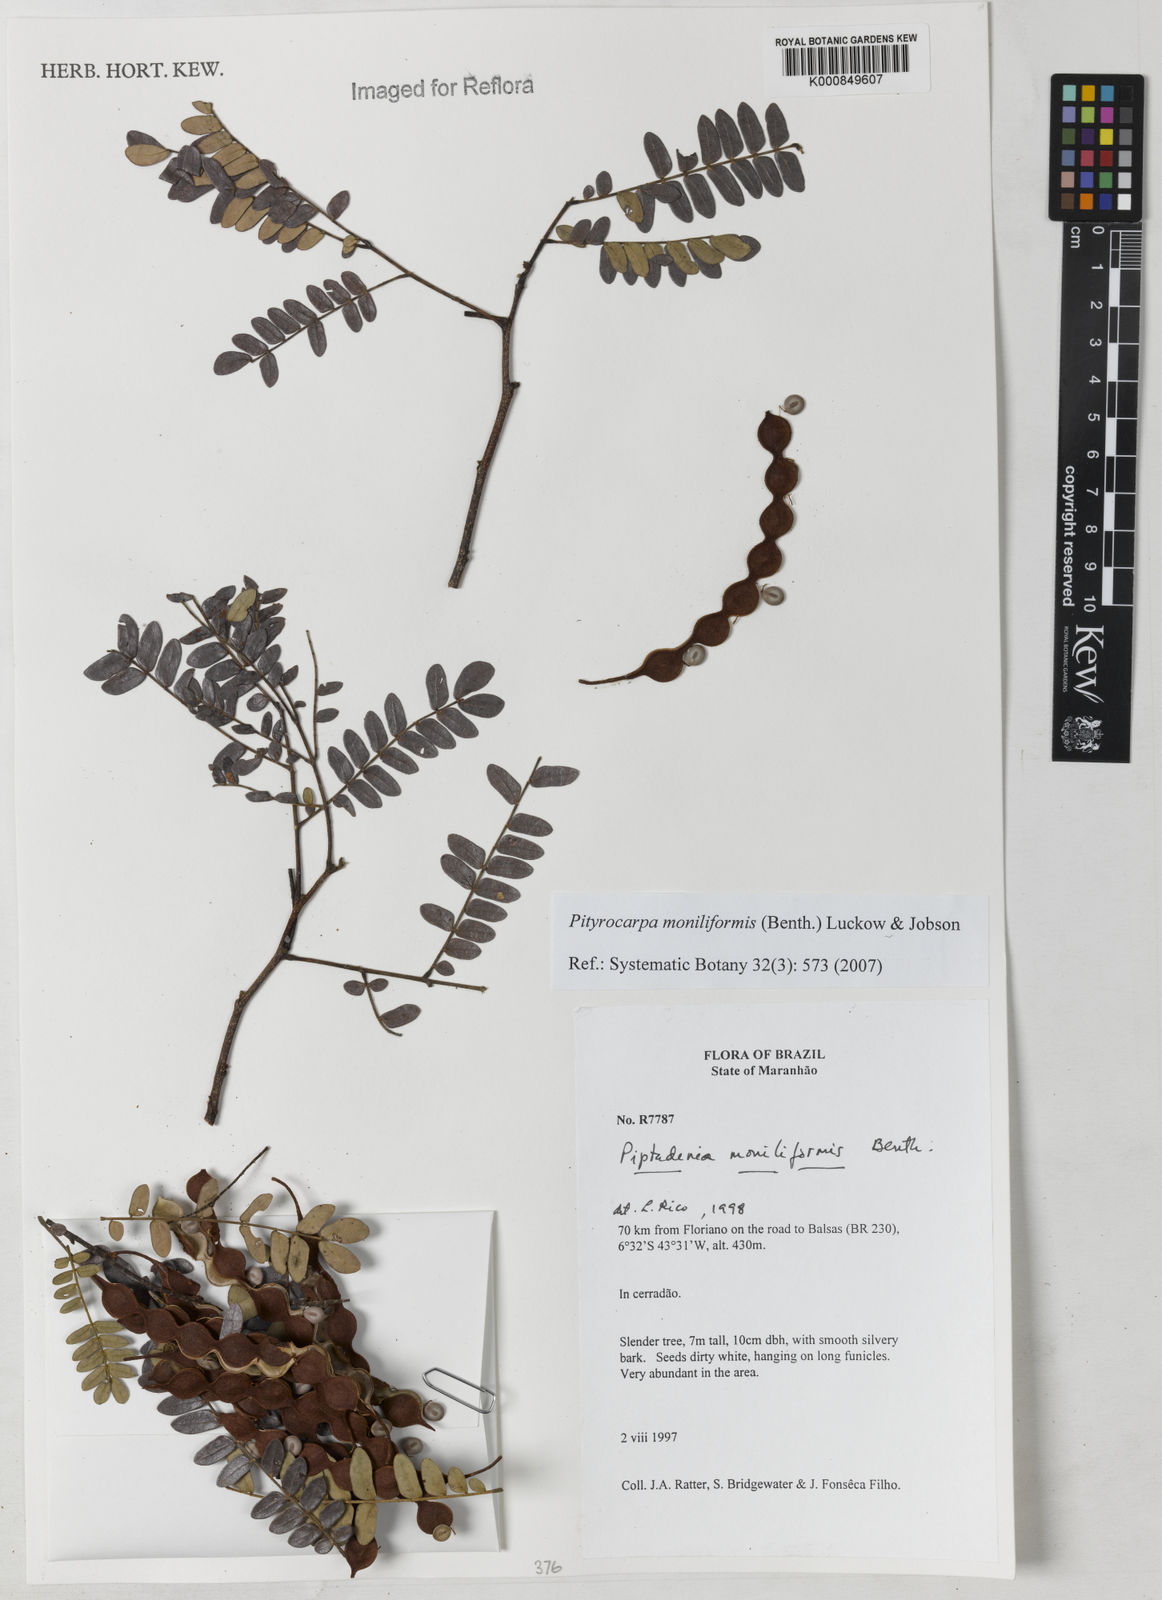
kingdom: Plantae
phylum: Tracheophyta
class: Magnoliopsida
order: Fabales
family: Fabaceae
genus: Pityrocarpa
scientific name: Pityrocarpa moniliformis
